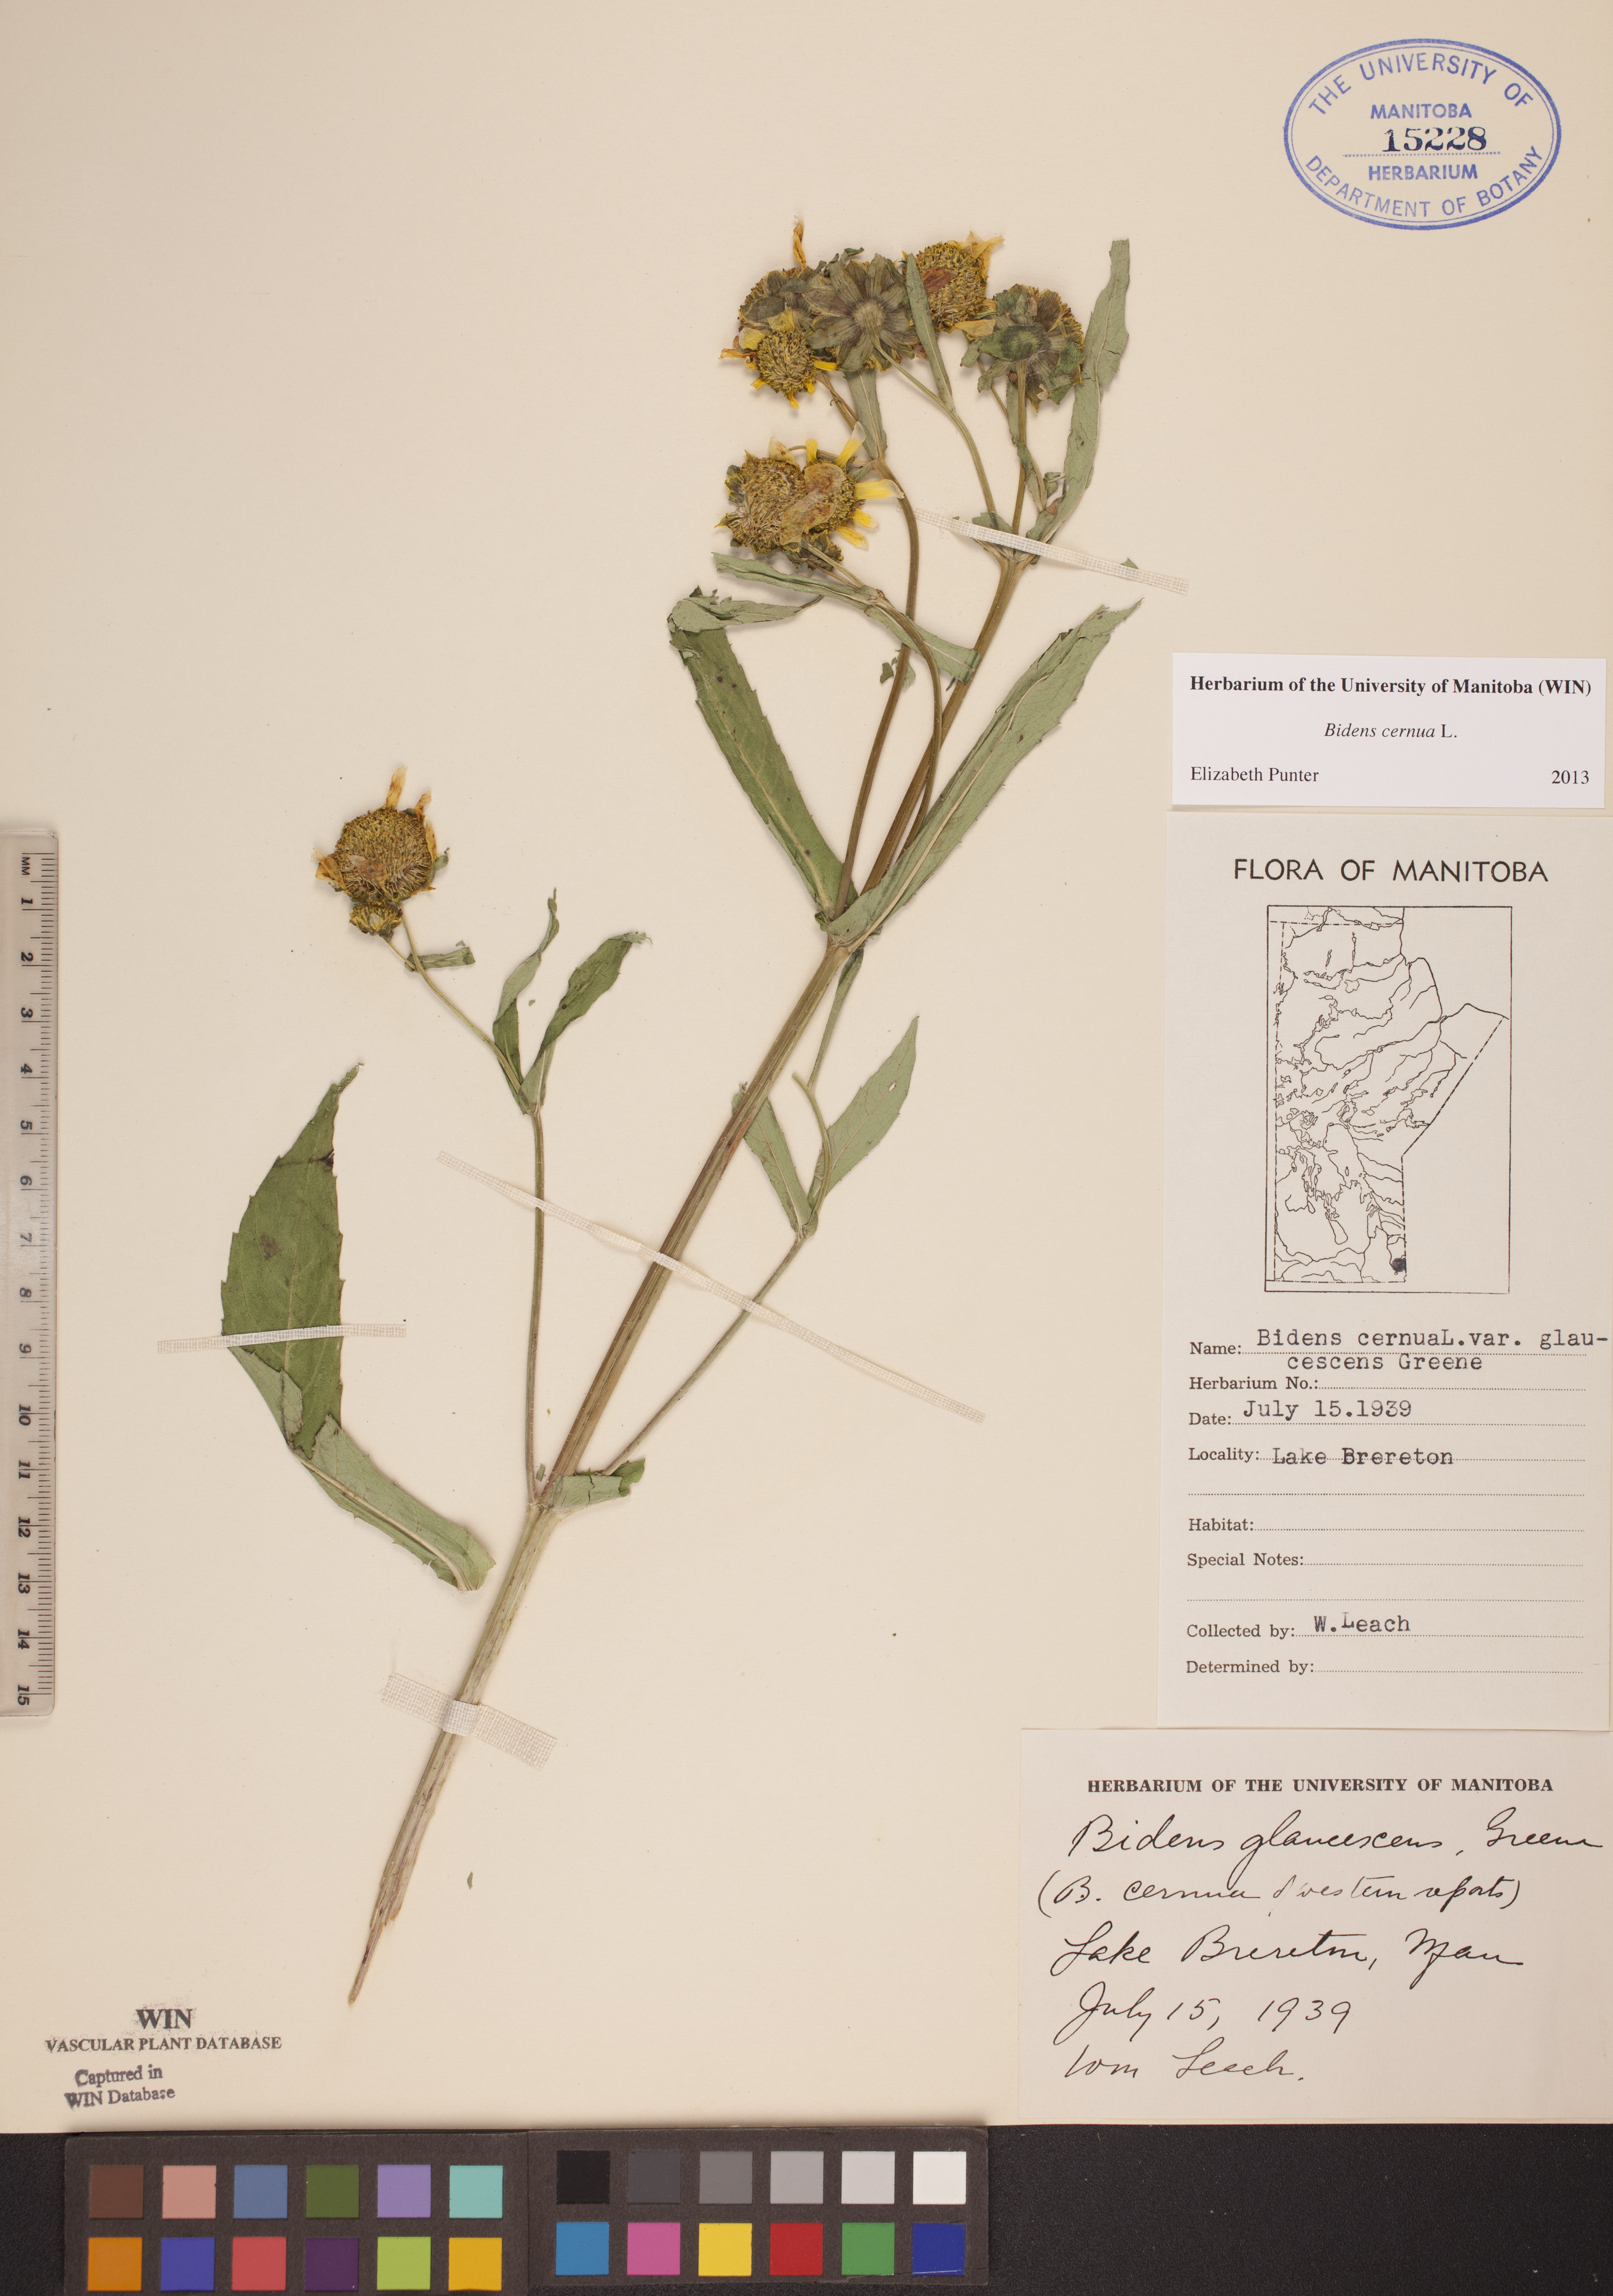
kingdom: Plantae
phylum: Tracheophyta
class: Magnoliopsida
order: Asterales
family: Asteraceae
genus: Bidens
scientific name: Bidens cernua
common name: Nodding bur-marigold
